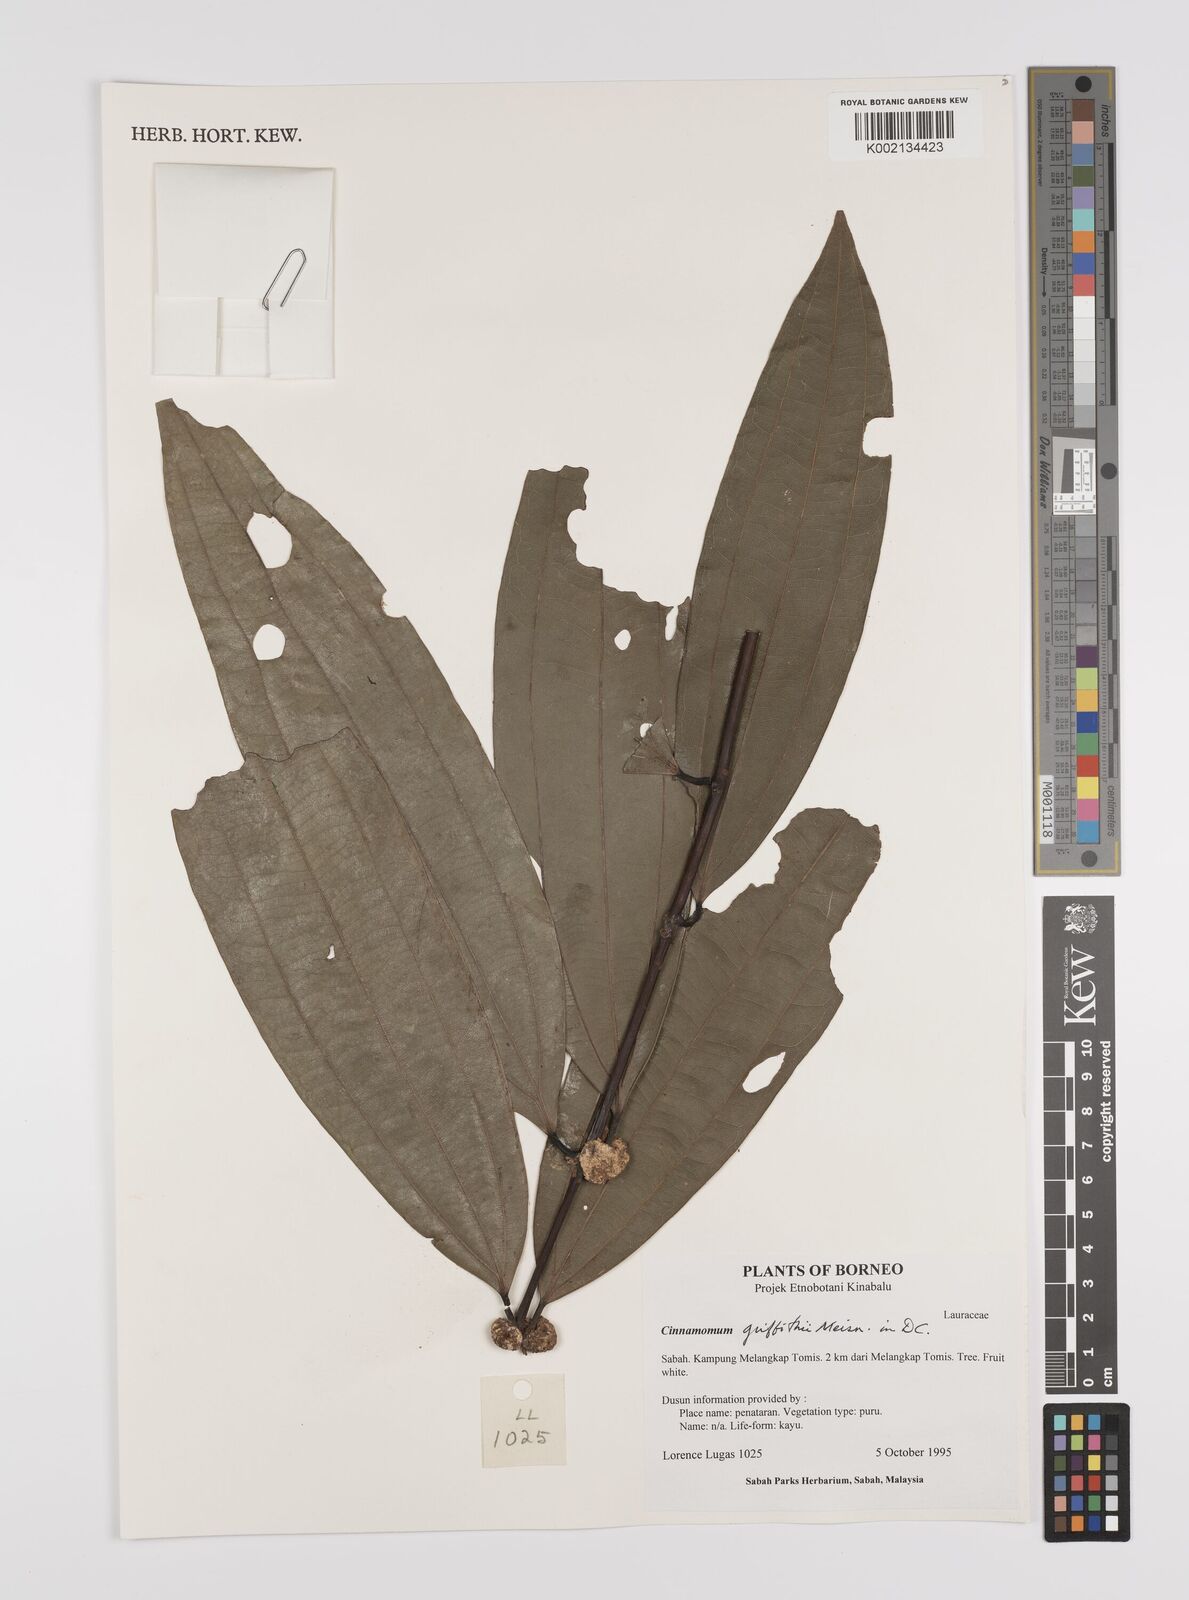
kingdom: Plantae
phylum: Tracheophyta
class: Magnoliopsida
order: Laurales
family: Lauraceae
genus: Cinnamomum
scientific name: Cinnamomum iners
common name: Wild cinnamon
